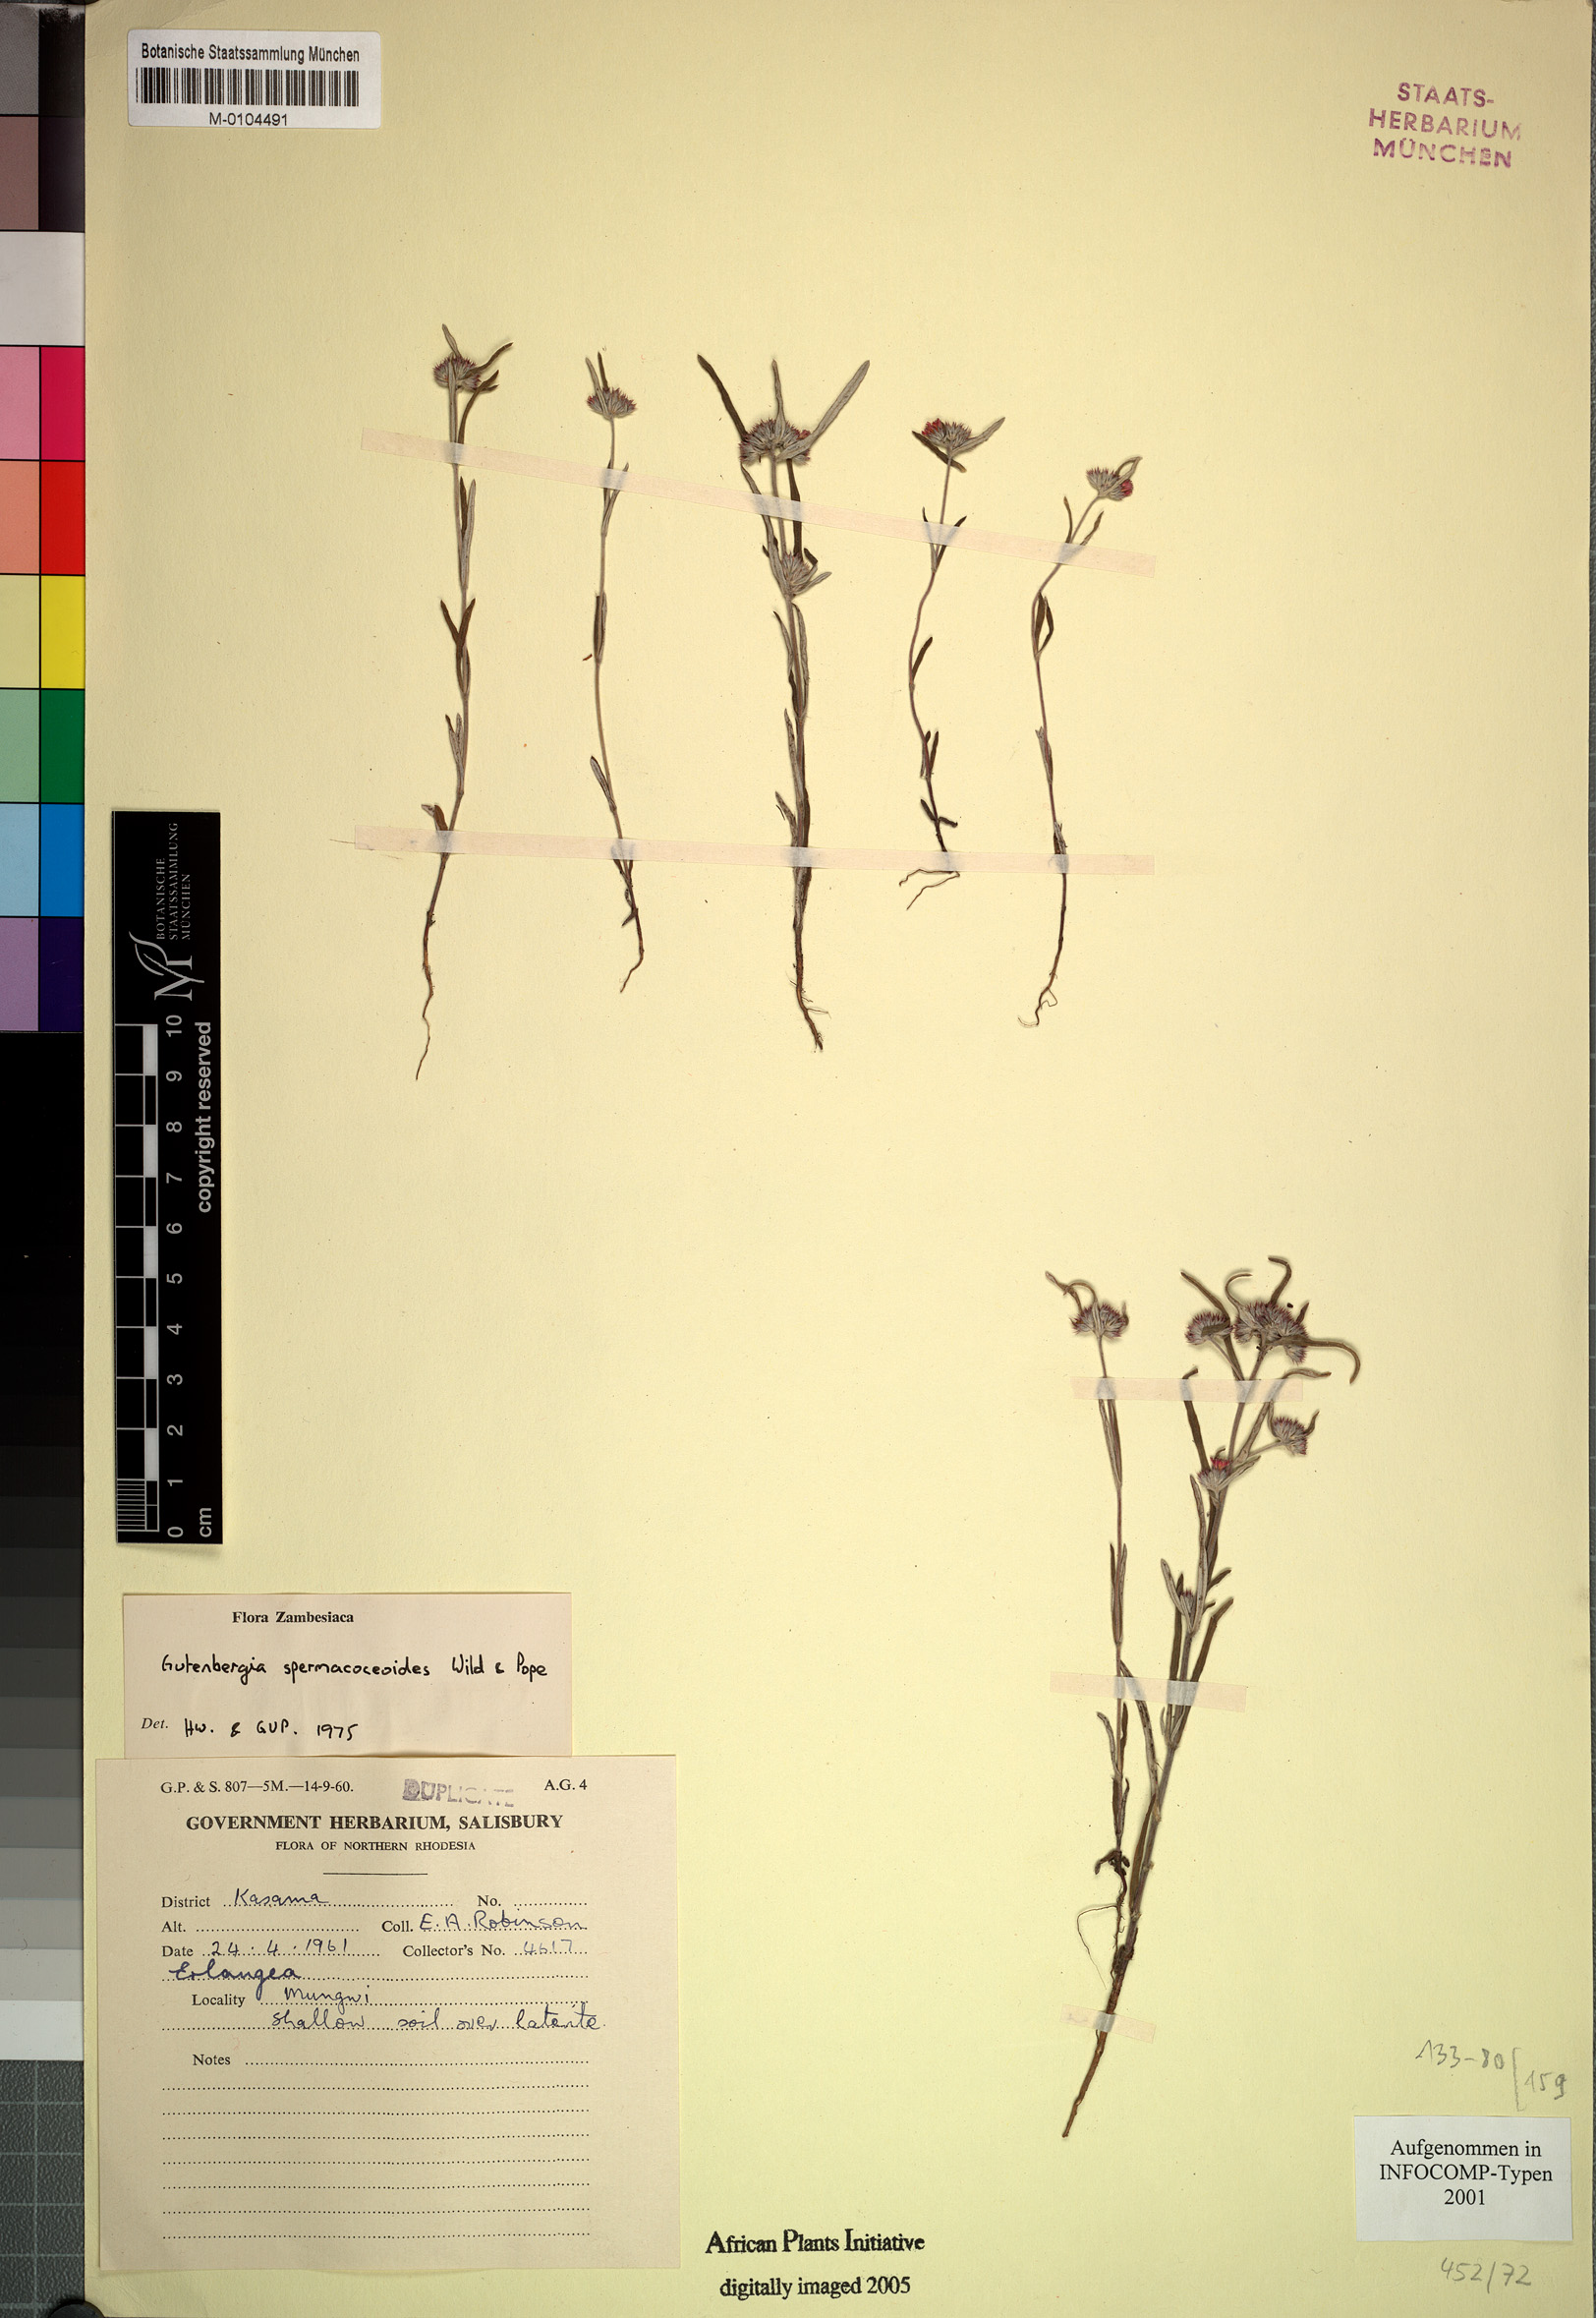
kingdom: Plantae
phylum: Tracheophyta
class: Magnoliopsida
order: Asterales
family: Asteraceae
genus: Gutenbergia
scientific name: Gutenbergia spermacoceoides
